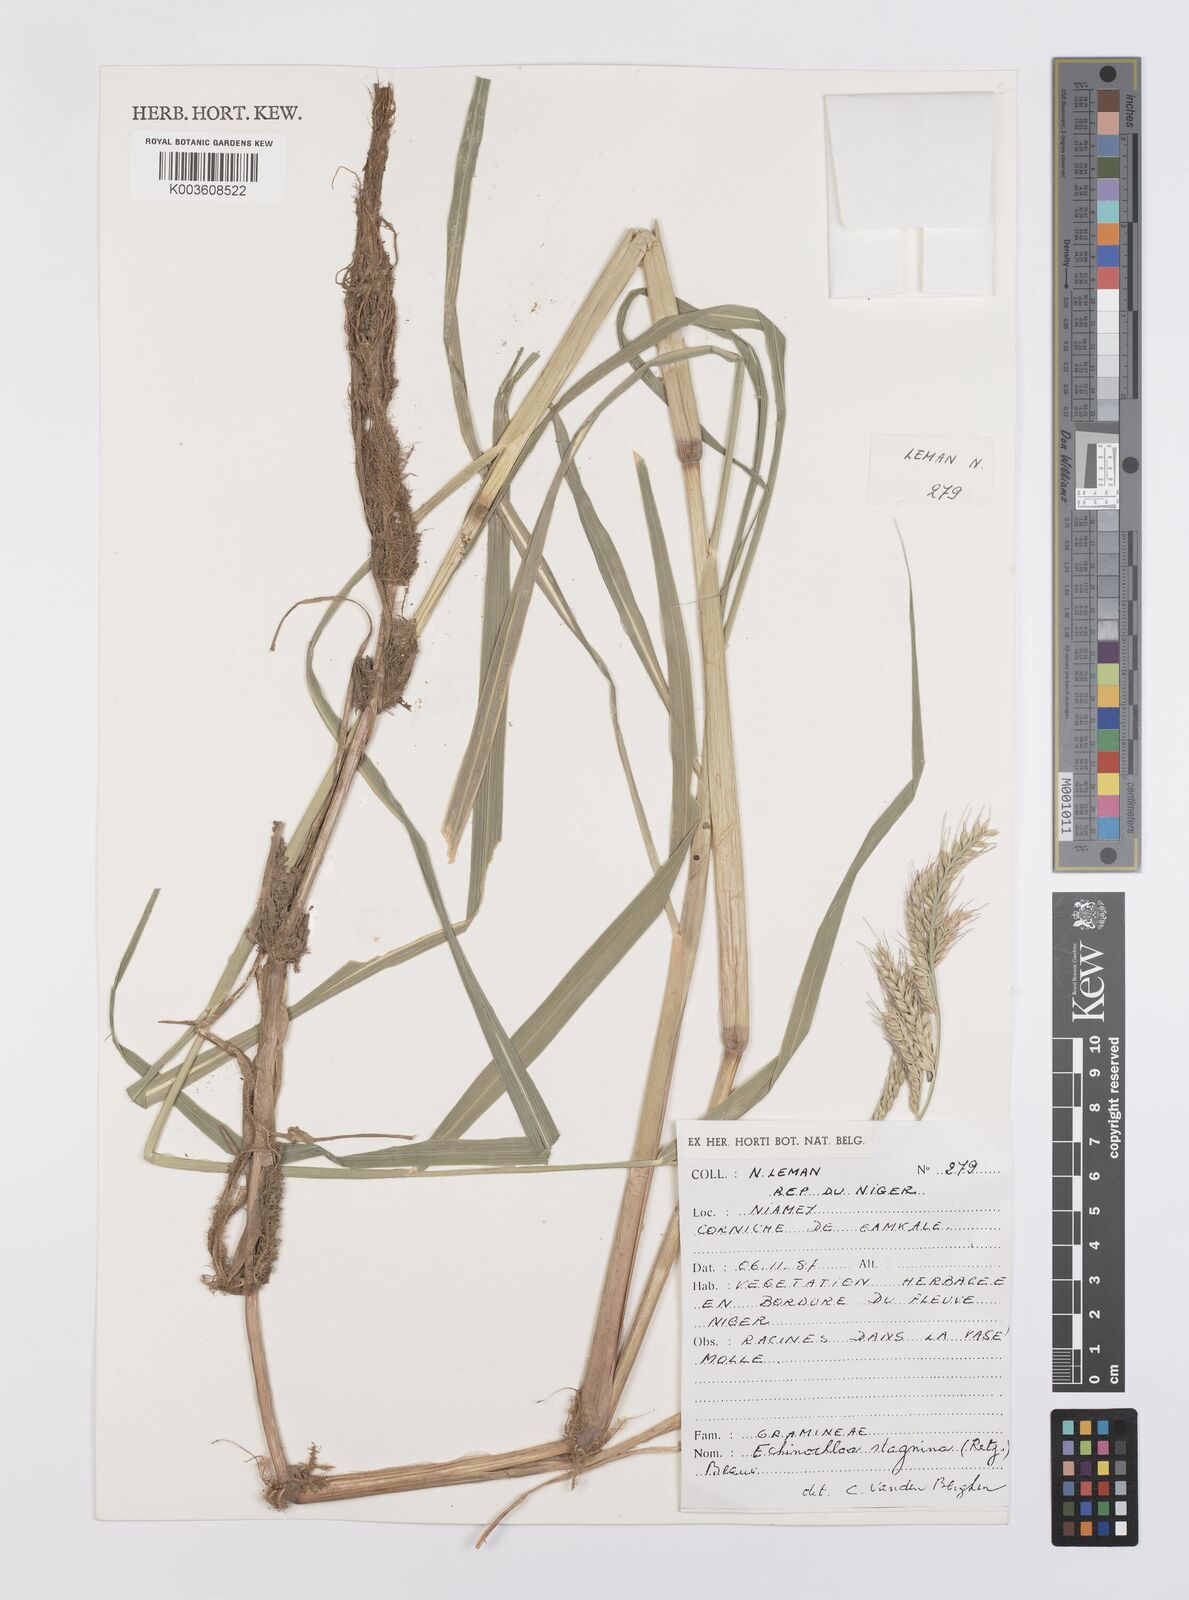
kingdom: Plantae
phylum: Tracheophyta
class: Liliopsida
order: Poales
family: Poaceae
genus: Echinochloa
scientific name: Echinochloa stagnina
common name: Burgu grass
